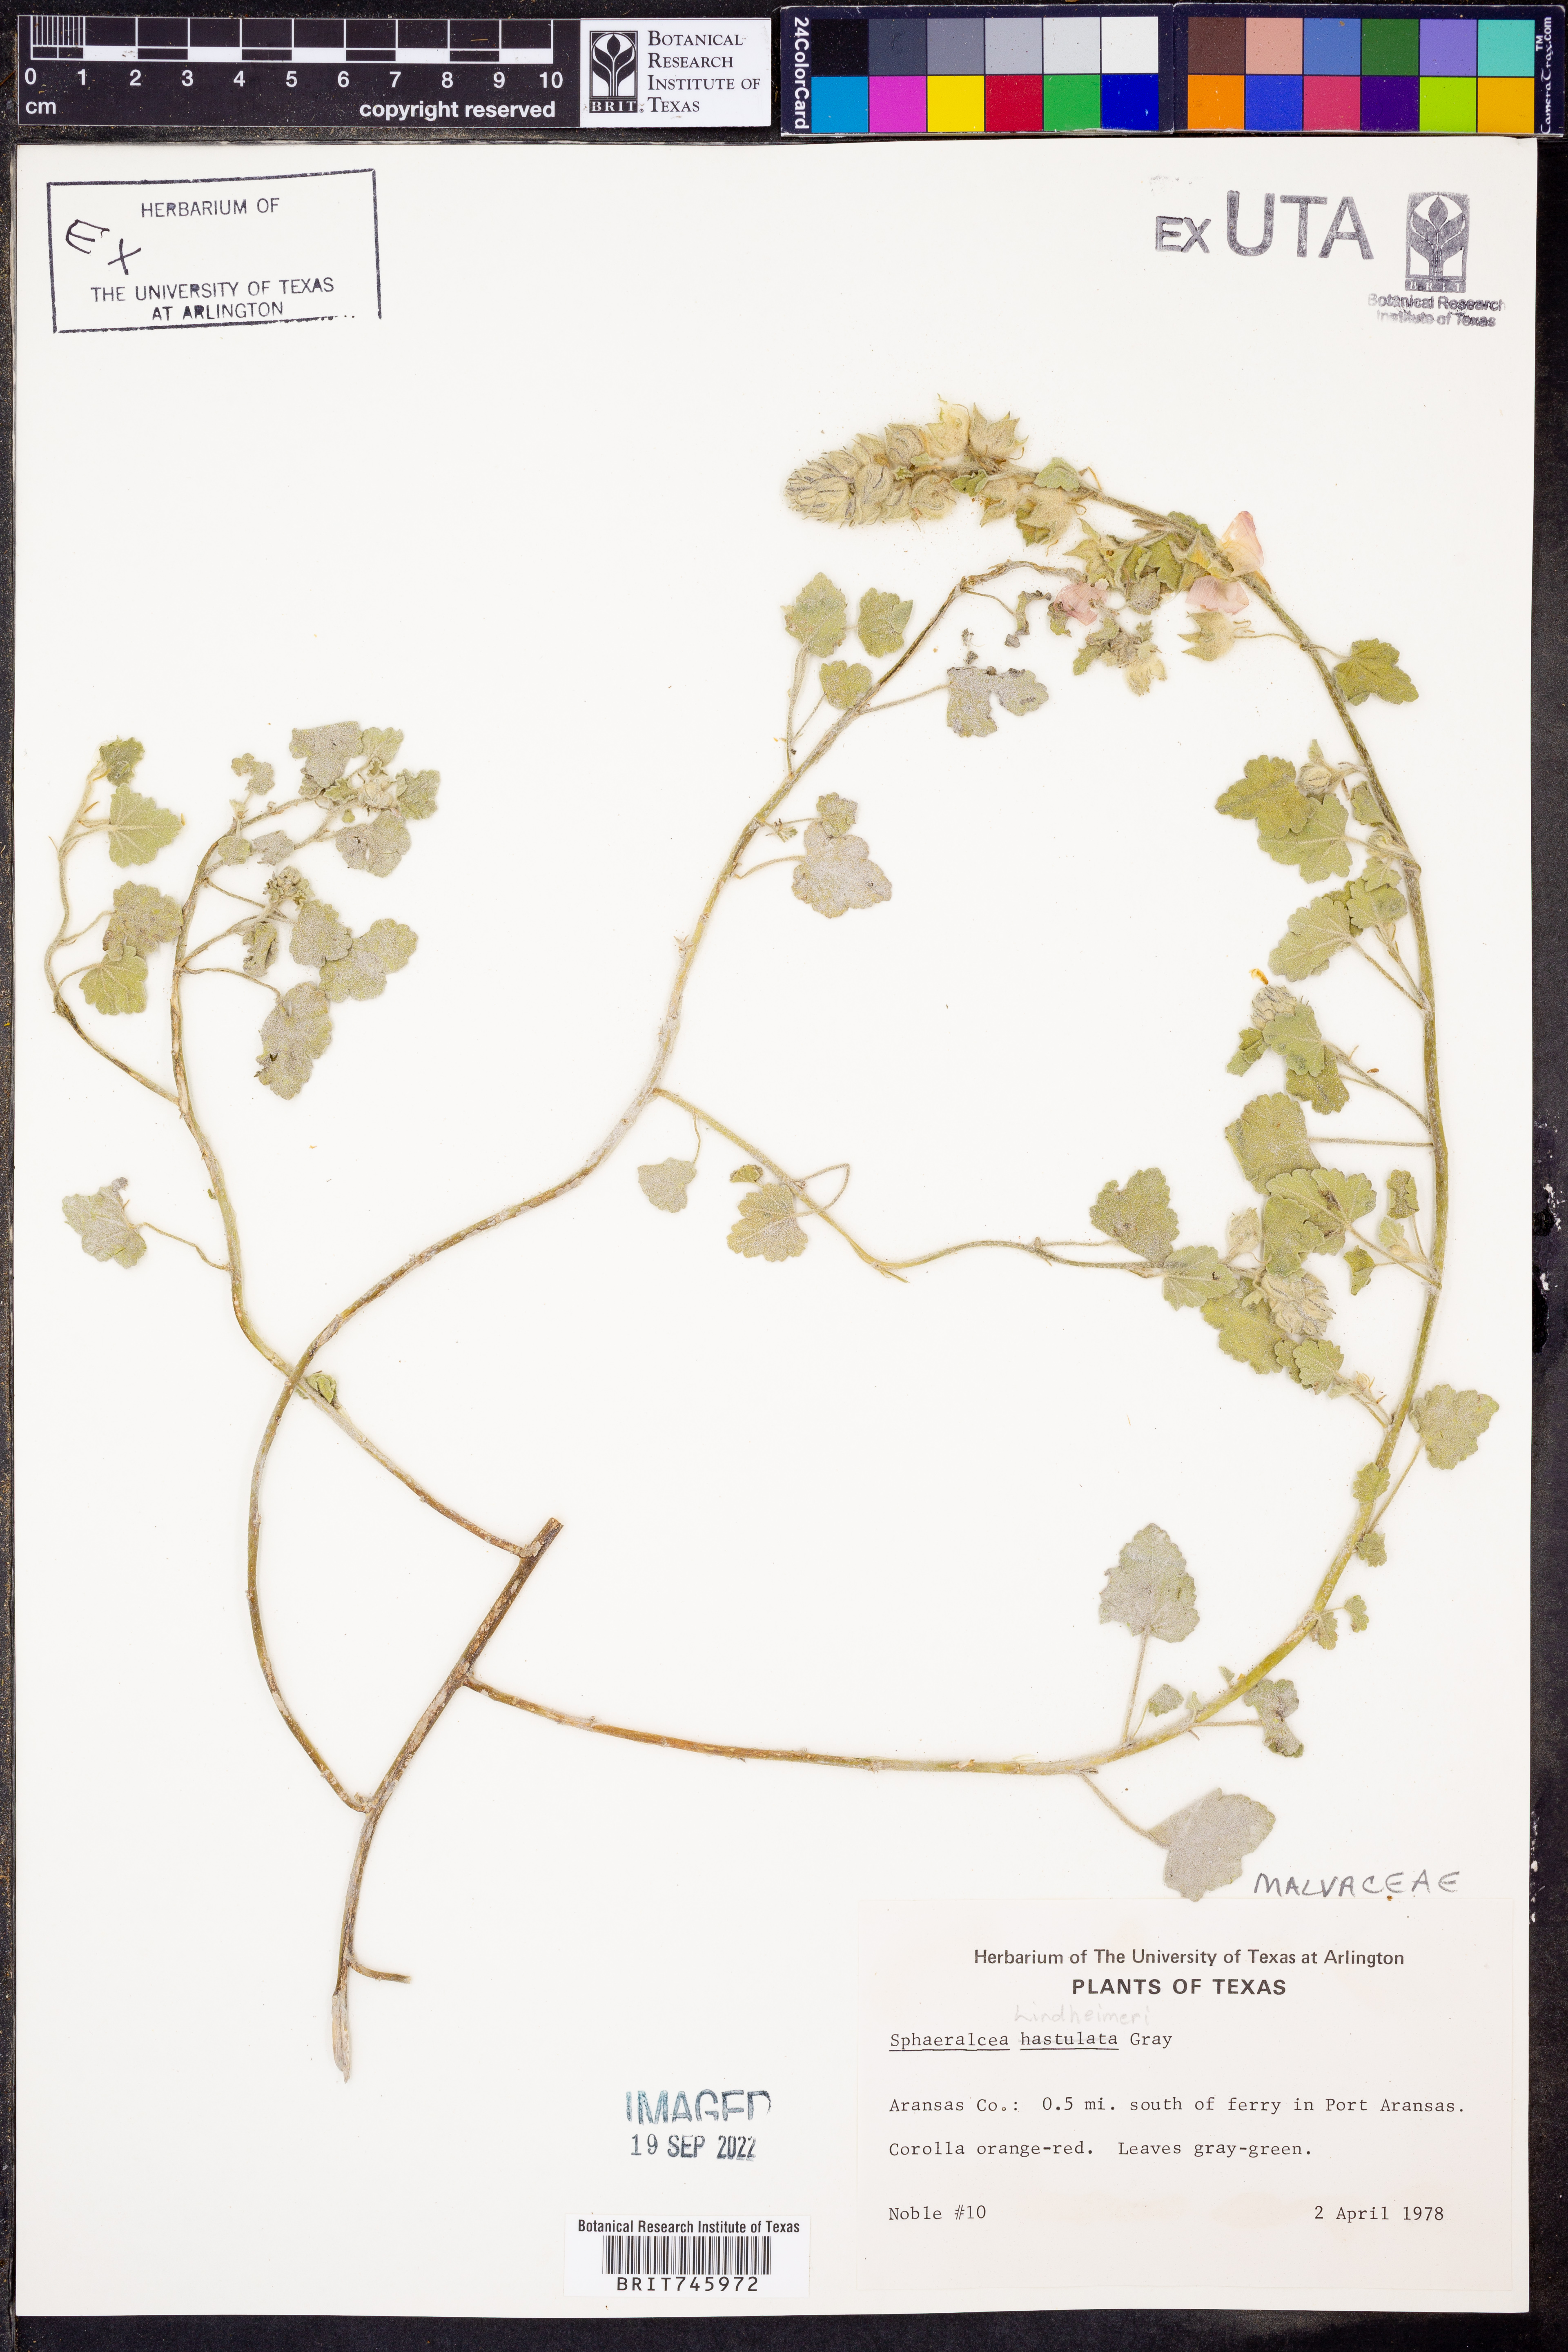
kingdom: Plantae
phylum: Tracheophyta
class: Magnoliopsida
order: Malvales
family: Malvaceae
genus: Sphaeralcea
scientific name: Sphaeralcea hastulata
